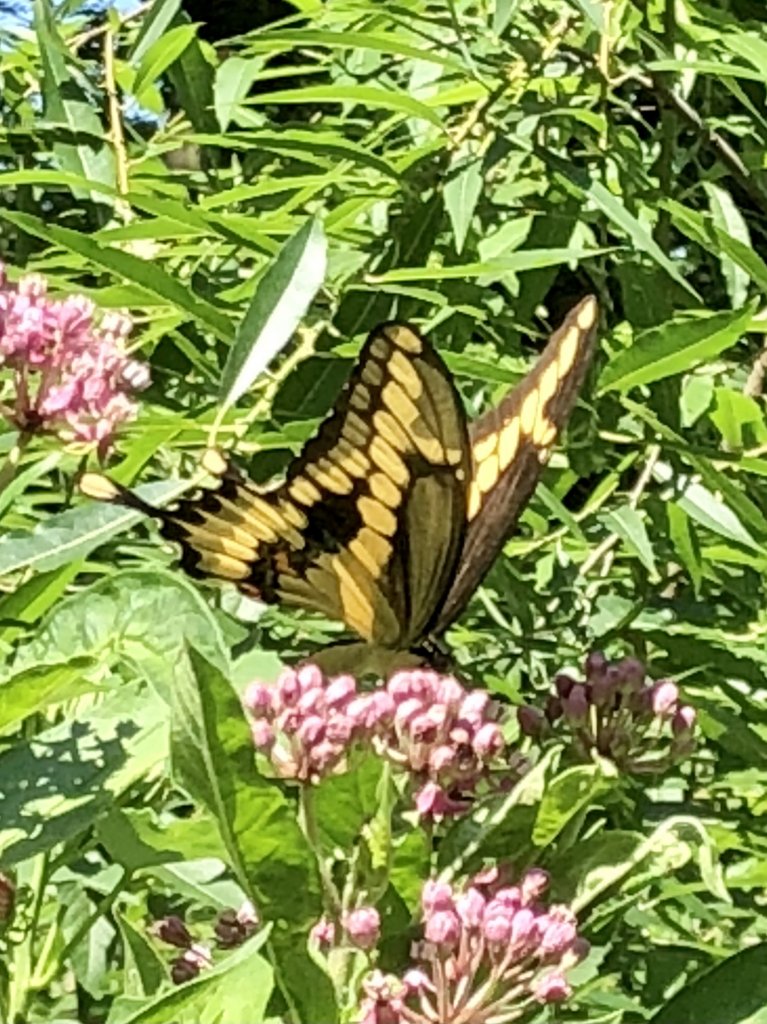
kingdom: Animalia
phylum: Arthropoda
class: Insecta
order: Lepidoptera
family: Papilionidae
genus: Papilio
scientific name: Papilio cresphontes
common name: Eastern Giant Swallowtail
